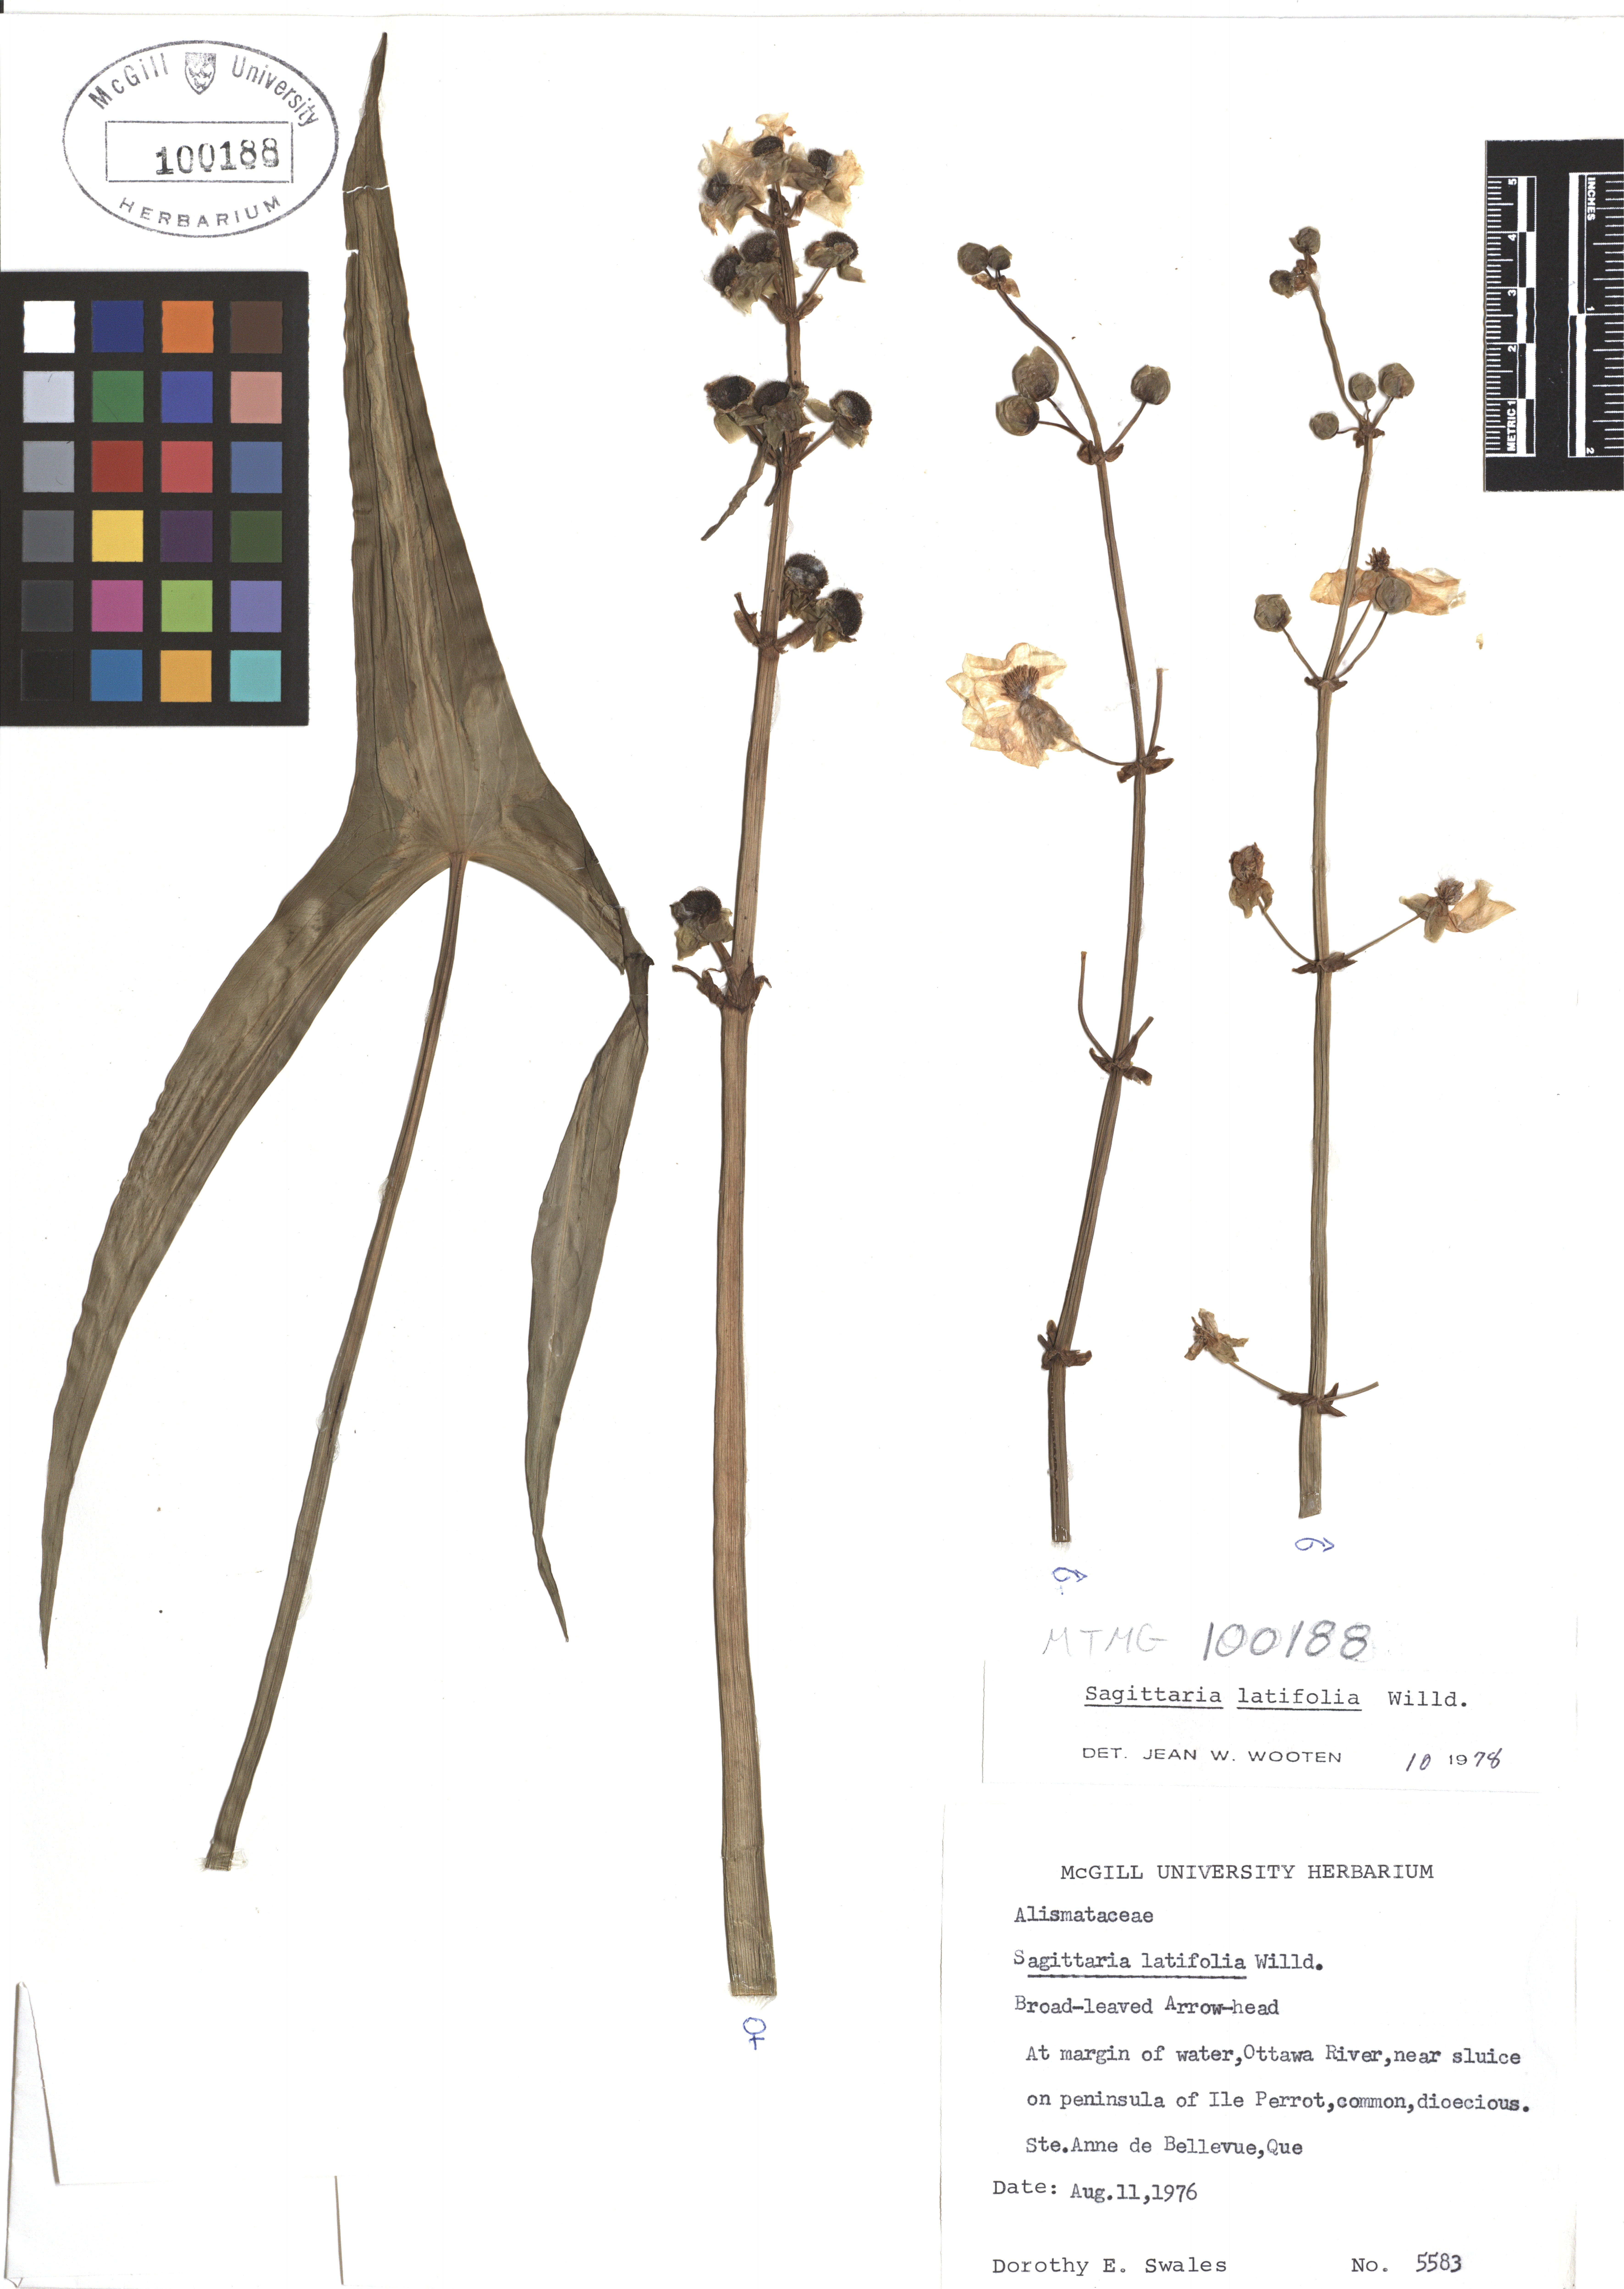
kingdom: Plantae
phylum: Tracheophyta
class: Liliopsida
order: Alismatales
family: Alismataceae
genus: Sagittaria
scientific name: Sagittaria latifolia
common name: Duck-potato
